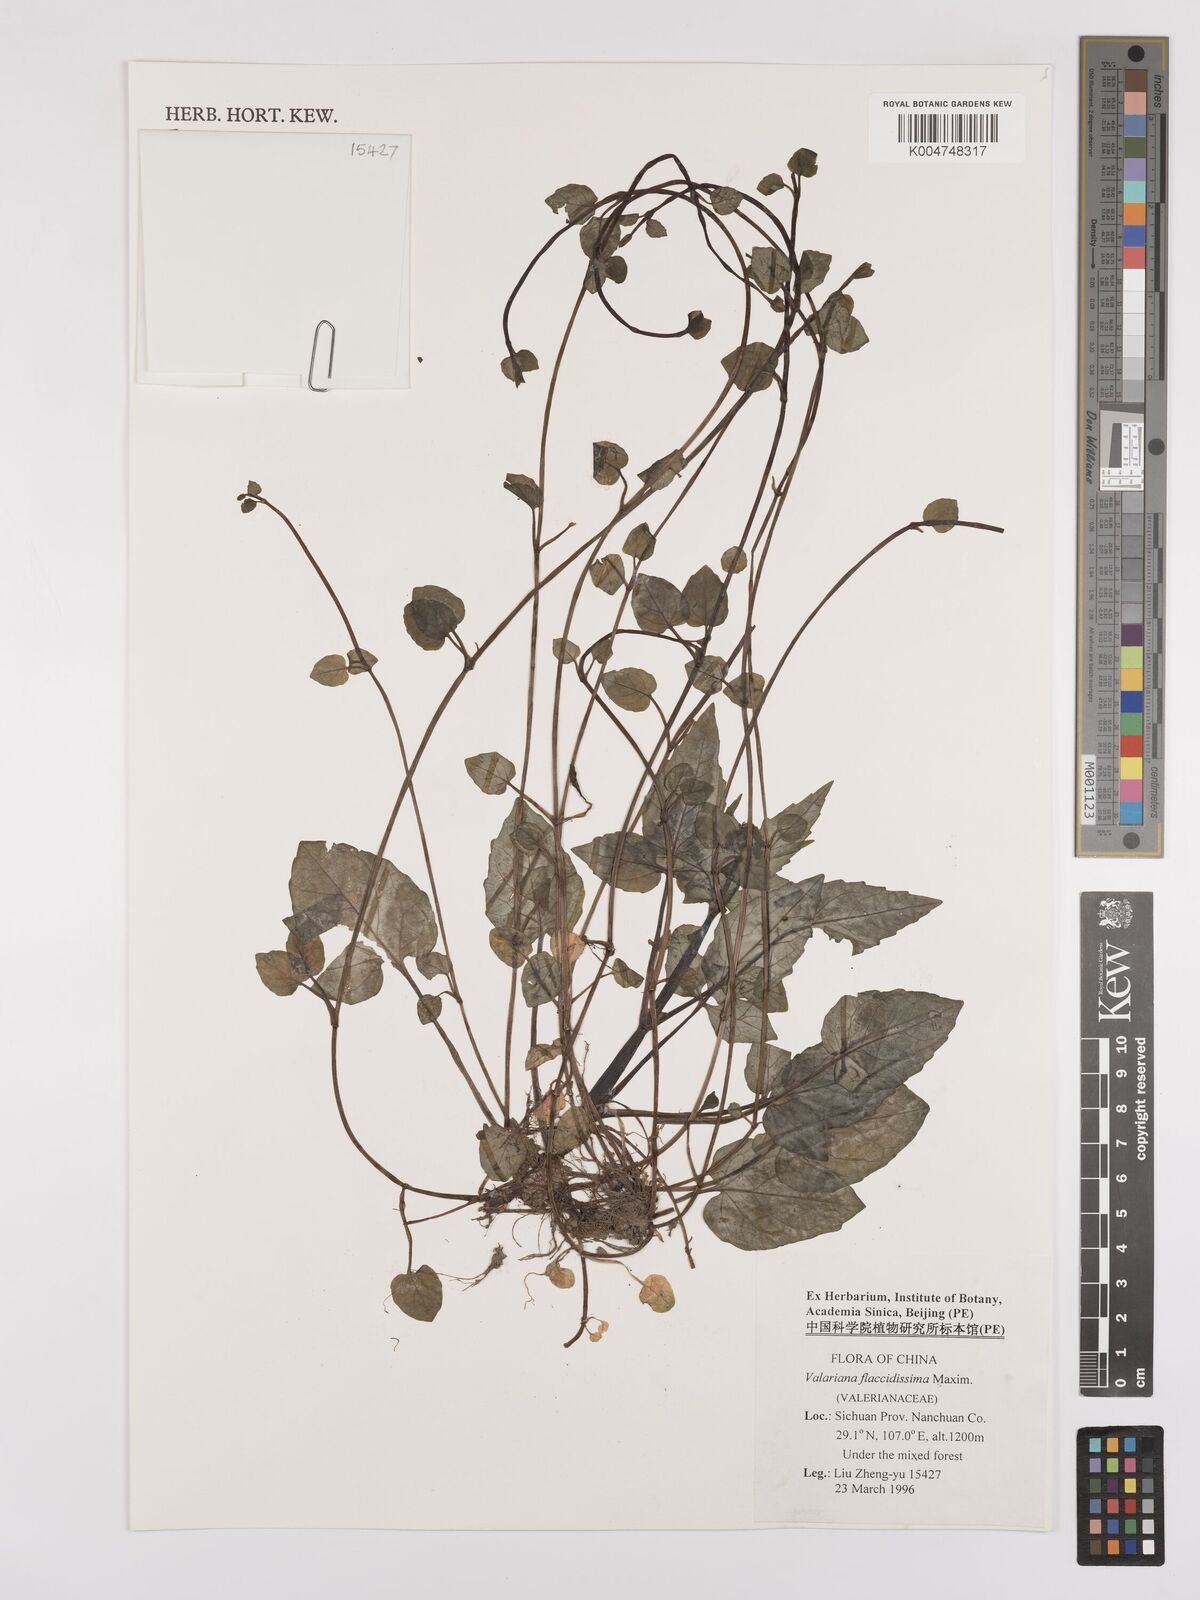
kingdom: Plantae
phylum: Tracheophyta
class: Magnoliopsida
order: Dipsacales
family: Caprifoliaceae
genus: Valeriana
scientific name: Valeriana flaccidissima
